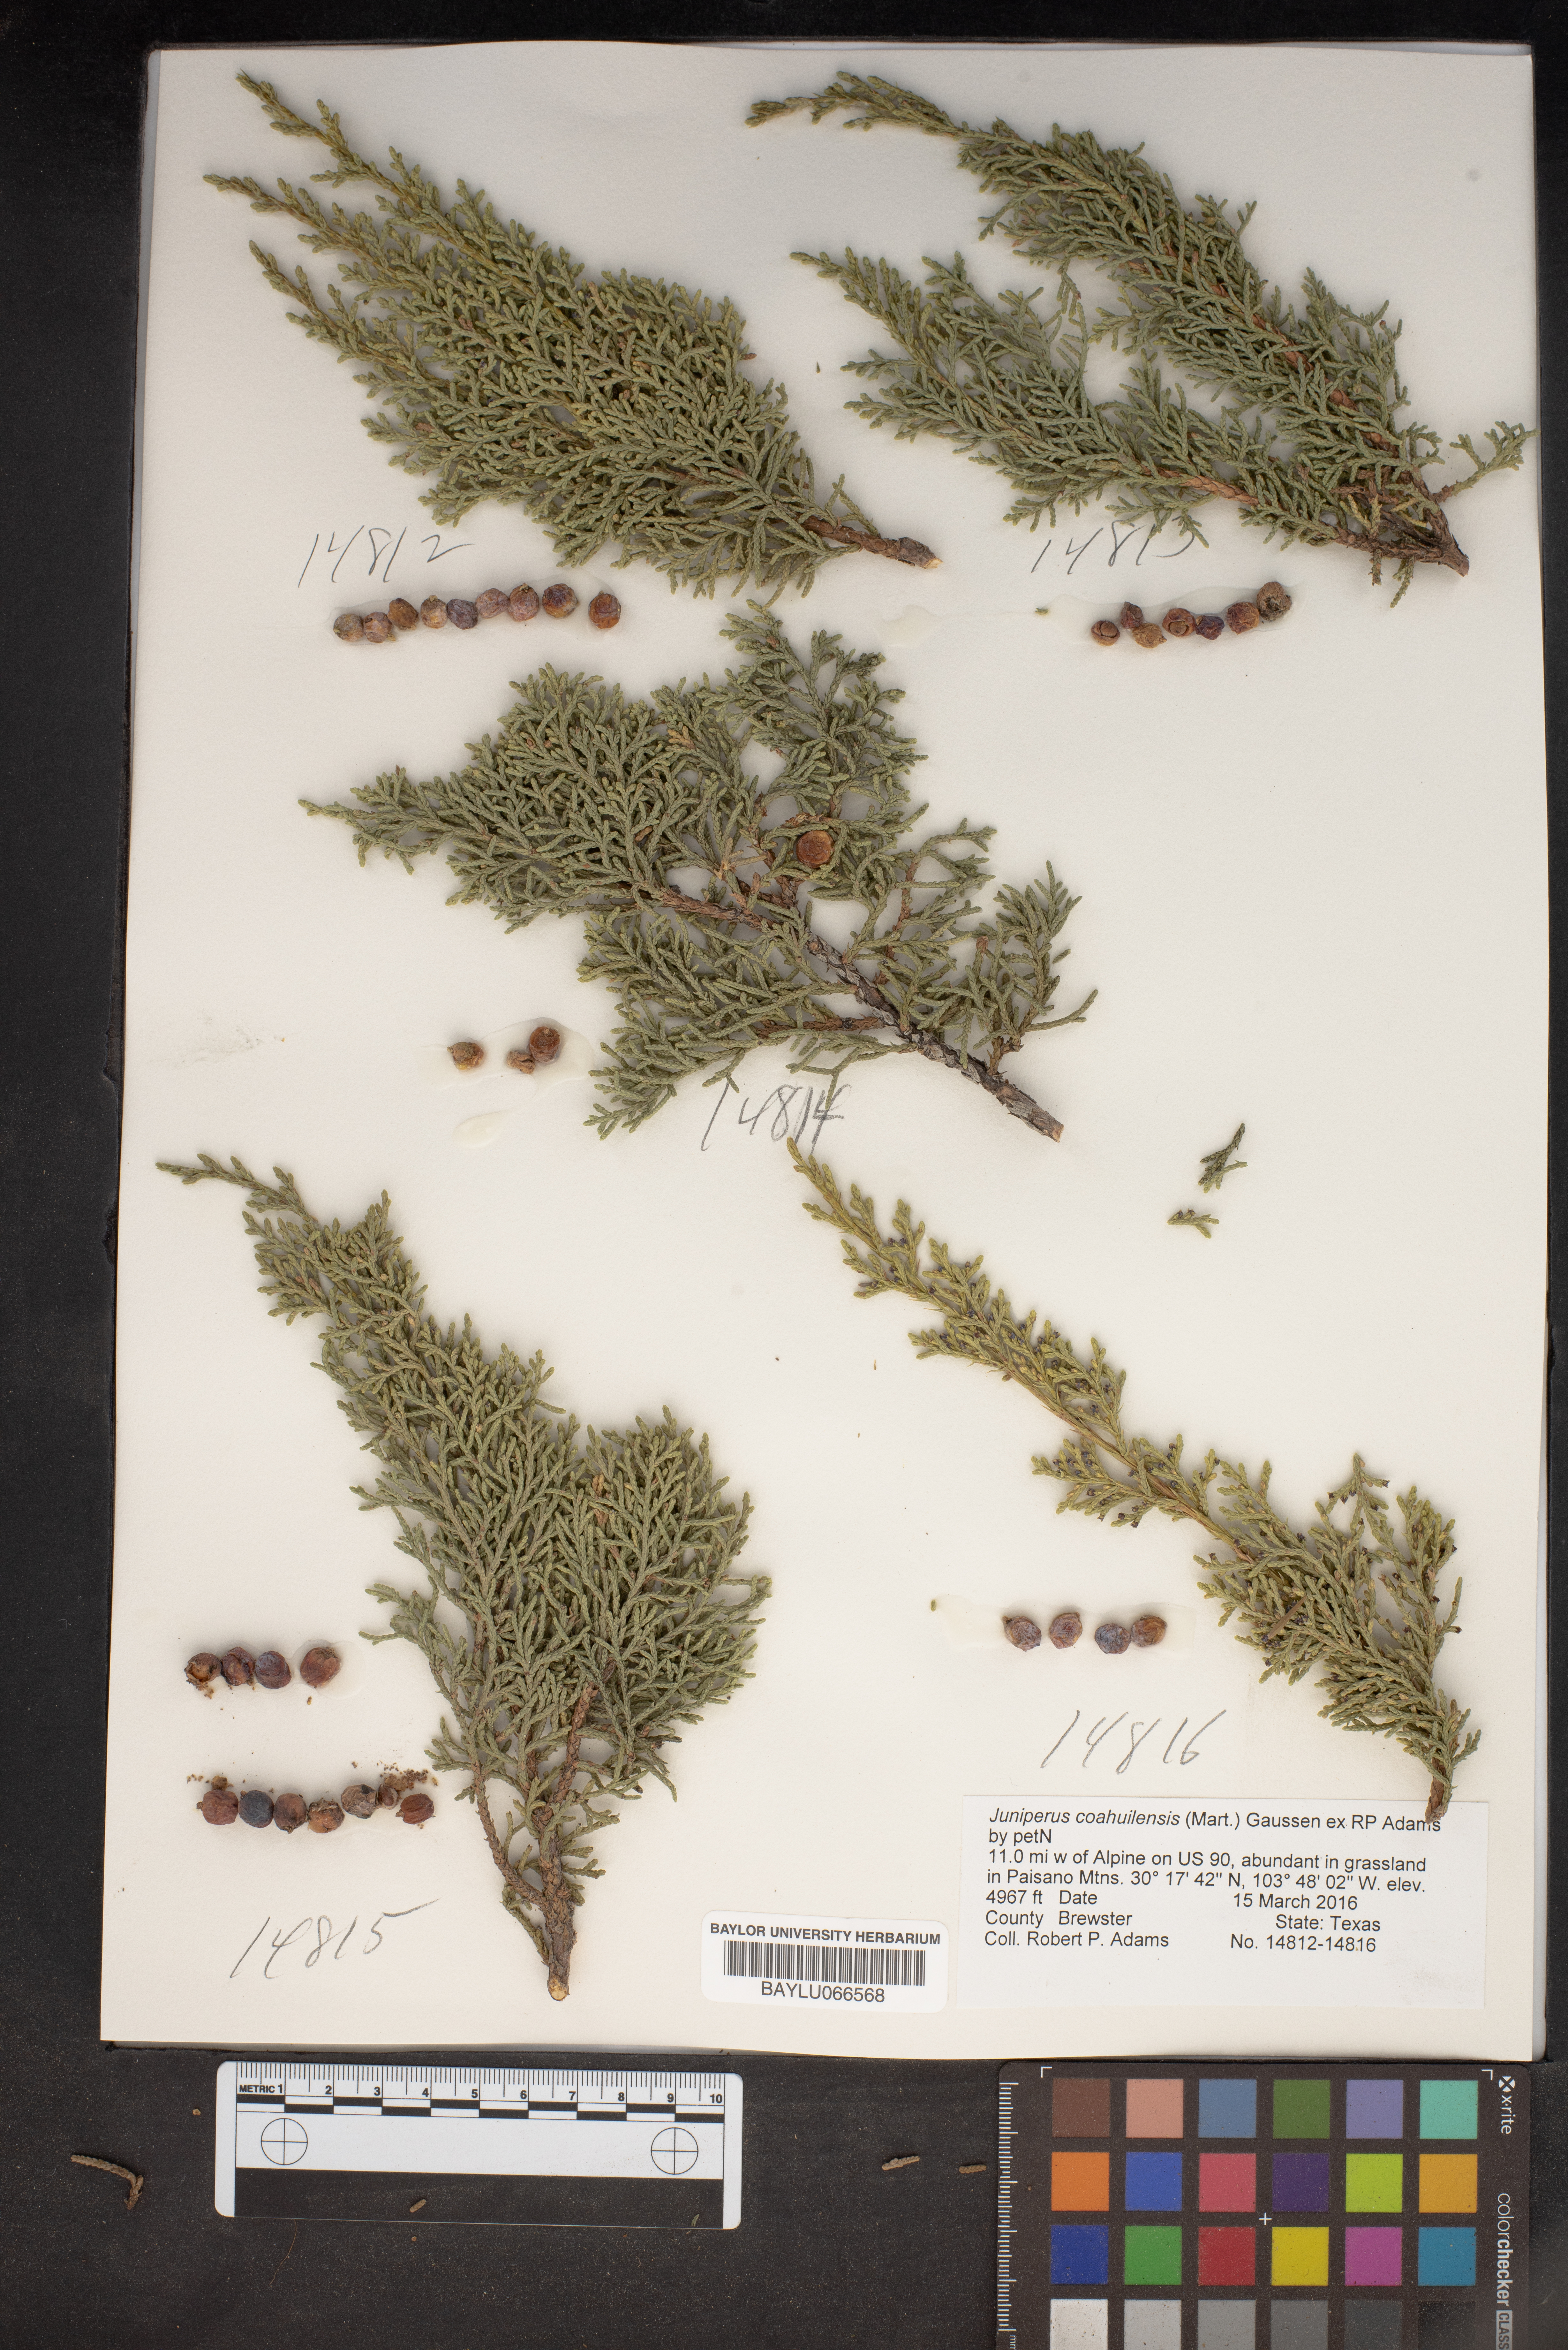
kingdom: Plantae
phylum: Tracheophyta
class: Pinopsida
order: Pinales
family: Cupressaceae
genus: Juniperus
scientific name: Juniperus coahuilensis
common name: Roseberry
